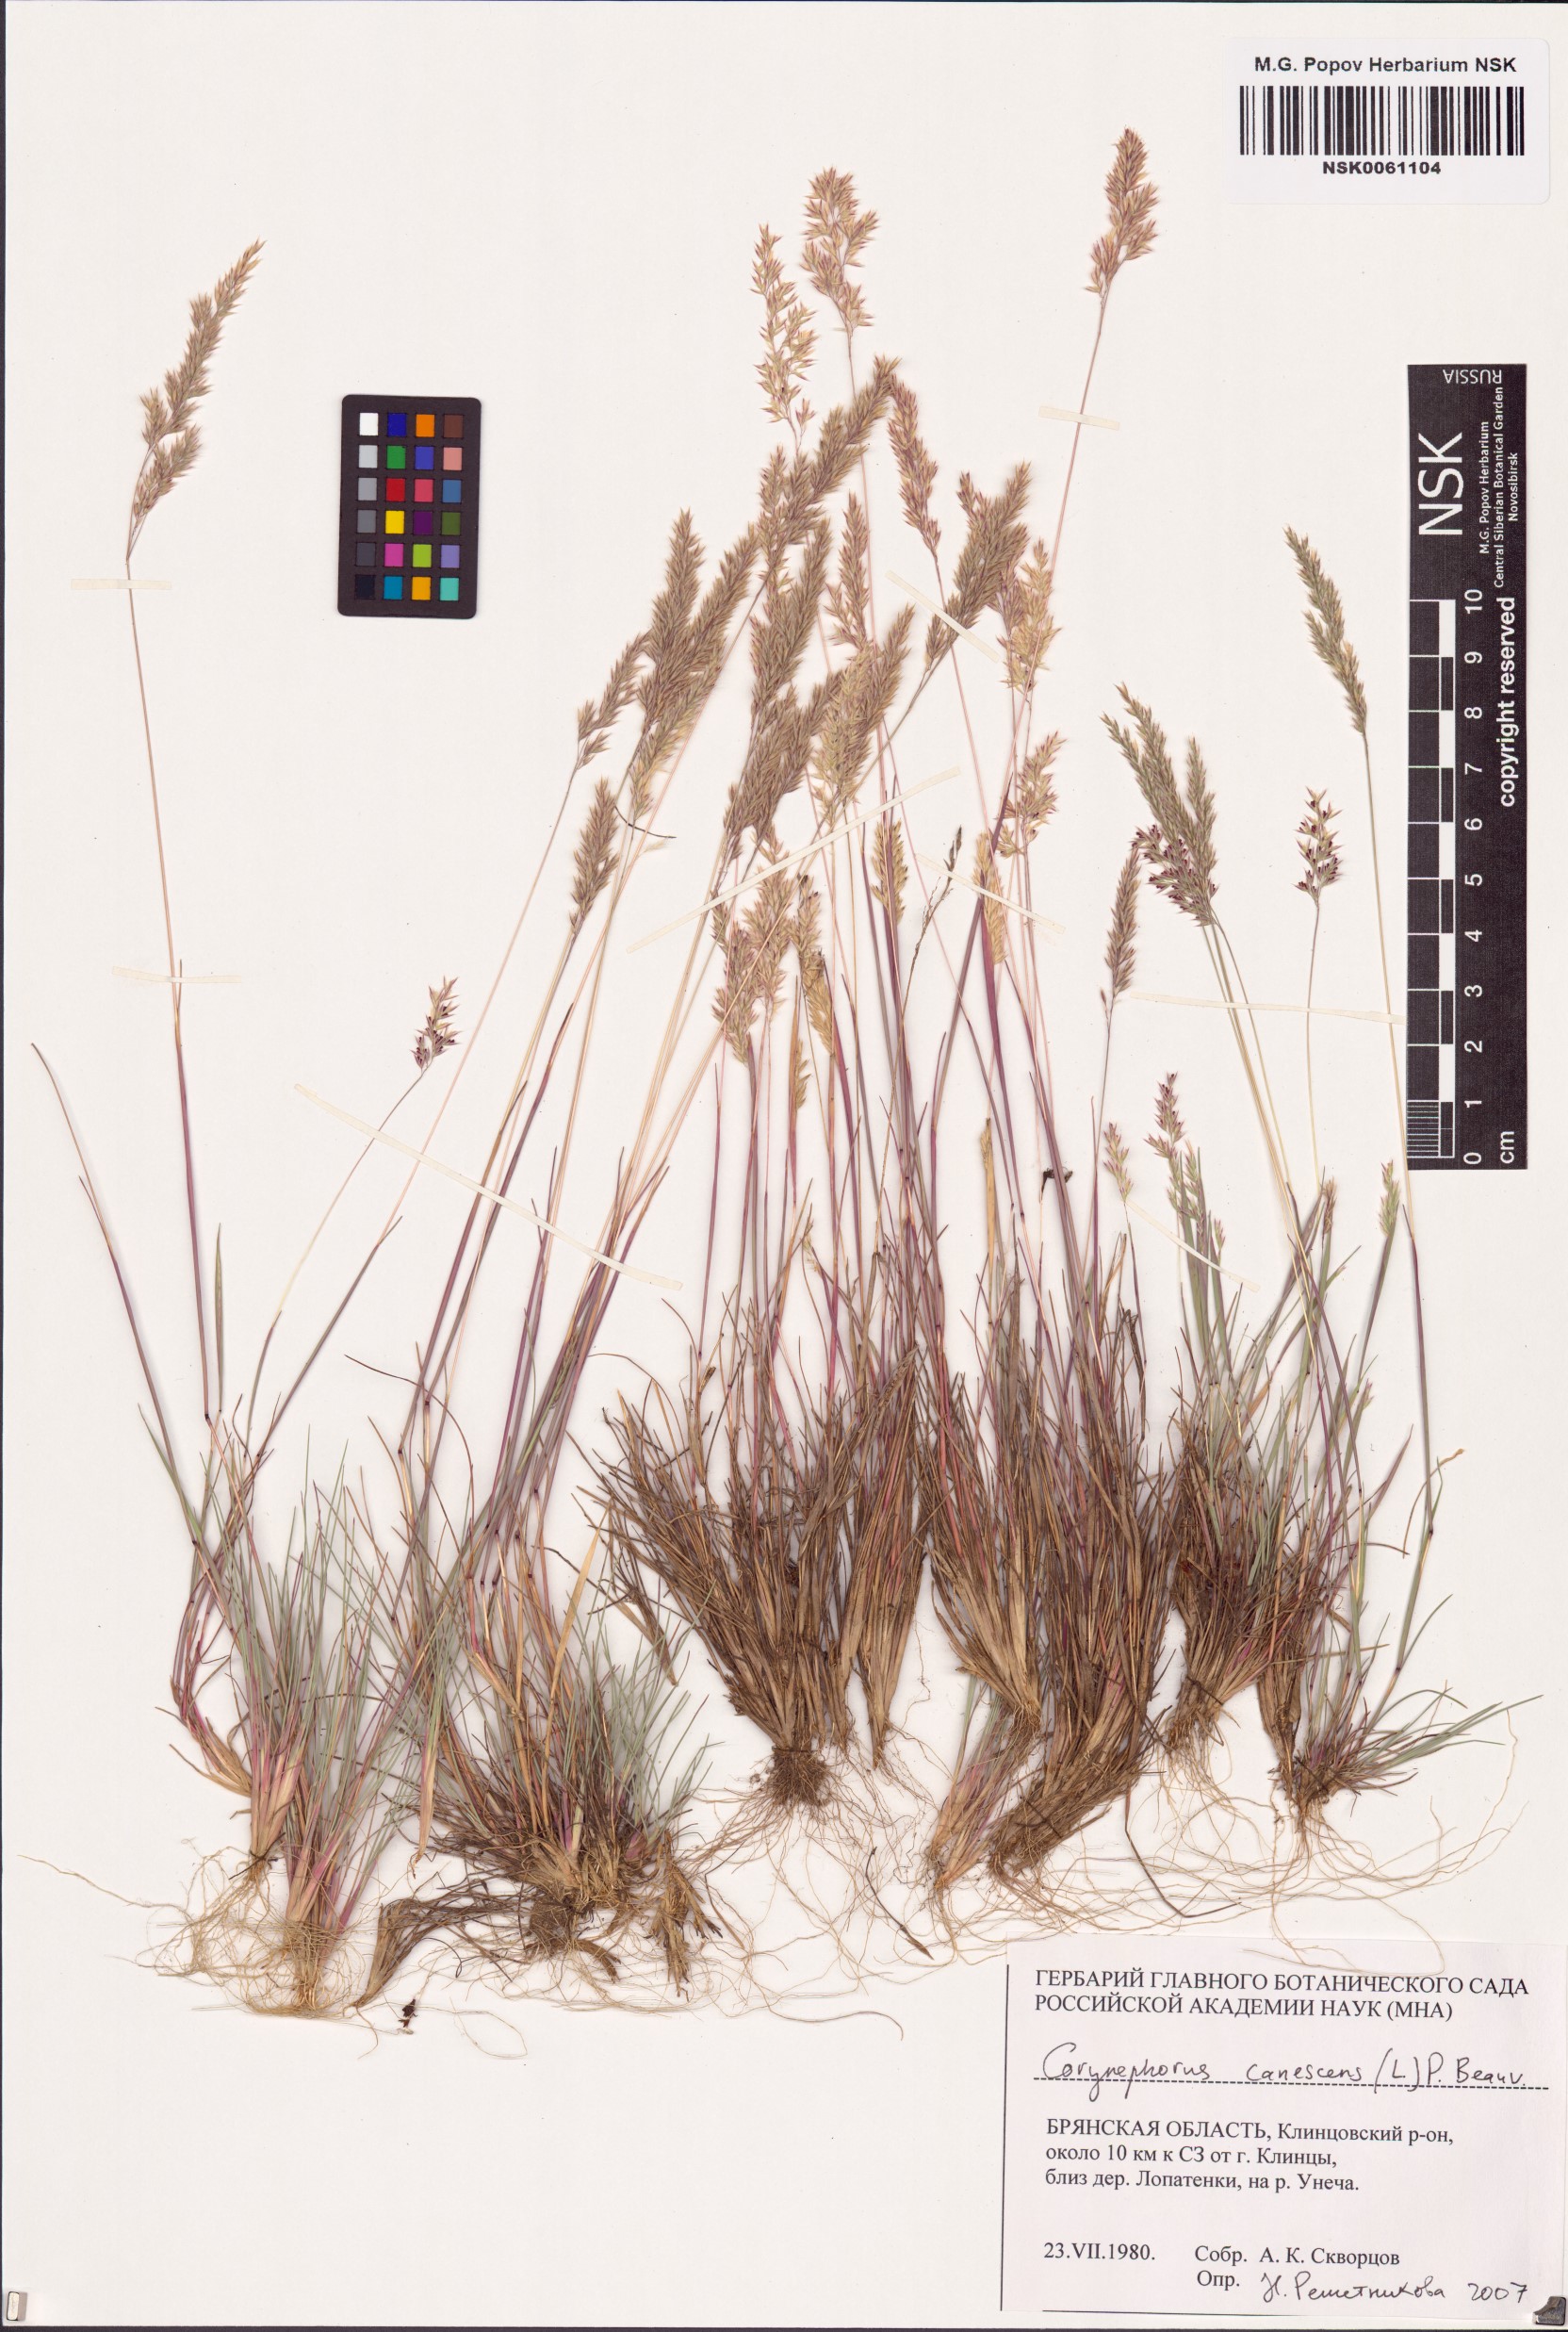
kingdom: Plantae
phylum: Tracheophyta
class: Liliopsida
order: Poales
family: Poaceae
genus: Corynephorus
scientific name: Corynephorus canescens
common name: Grey hair-grass
